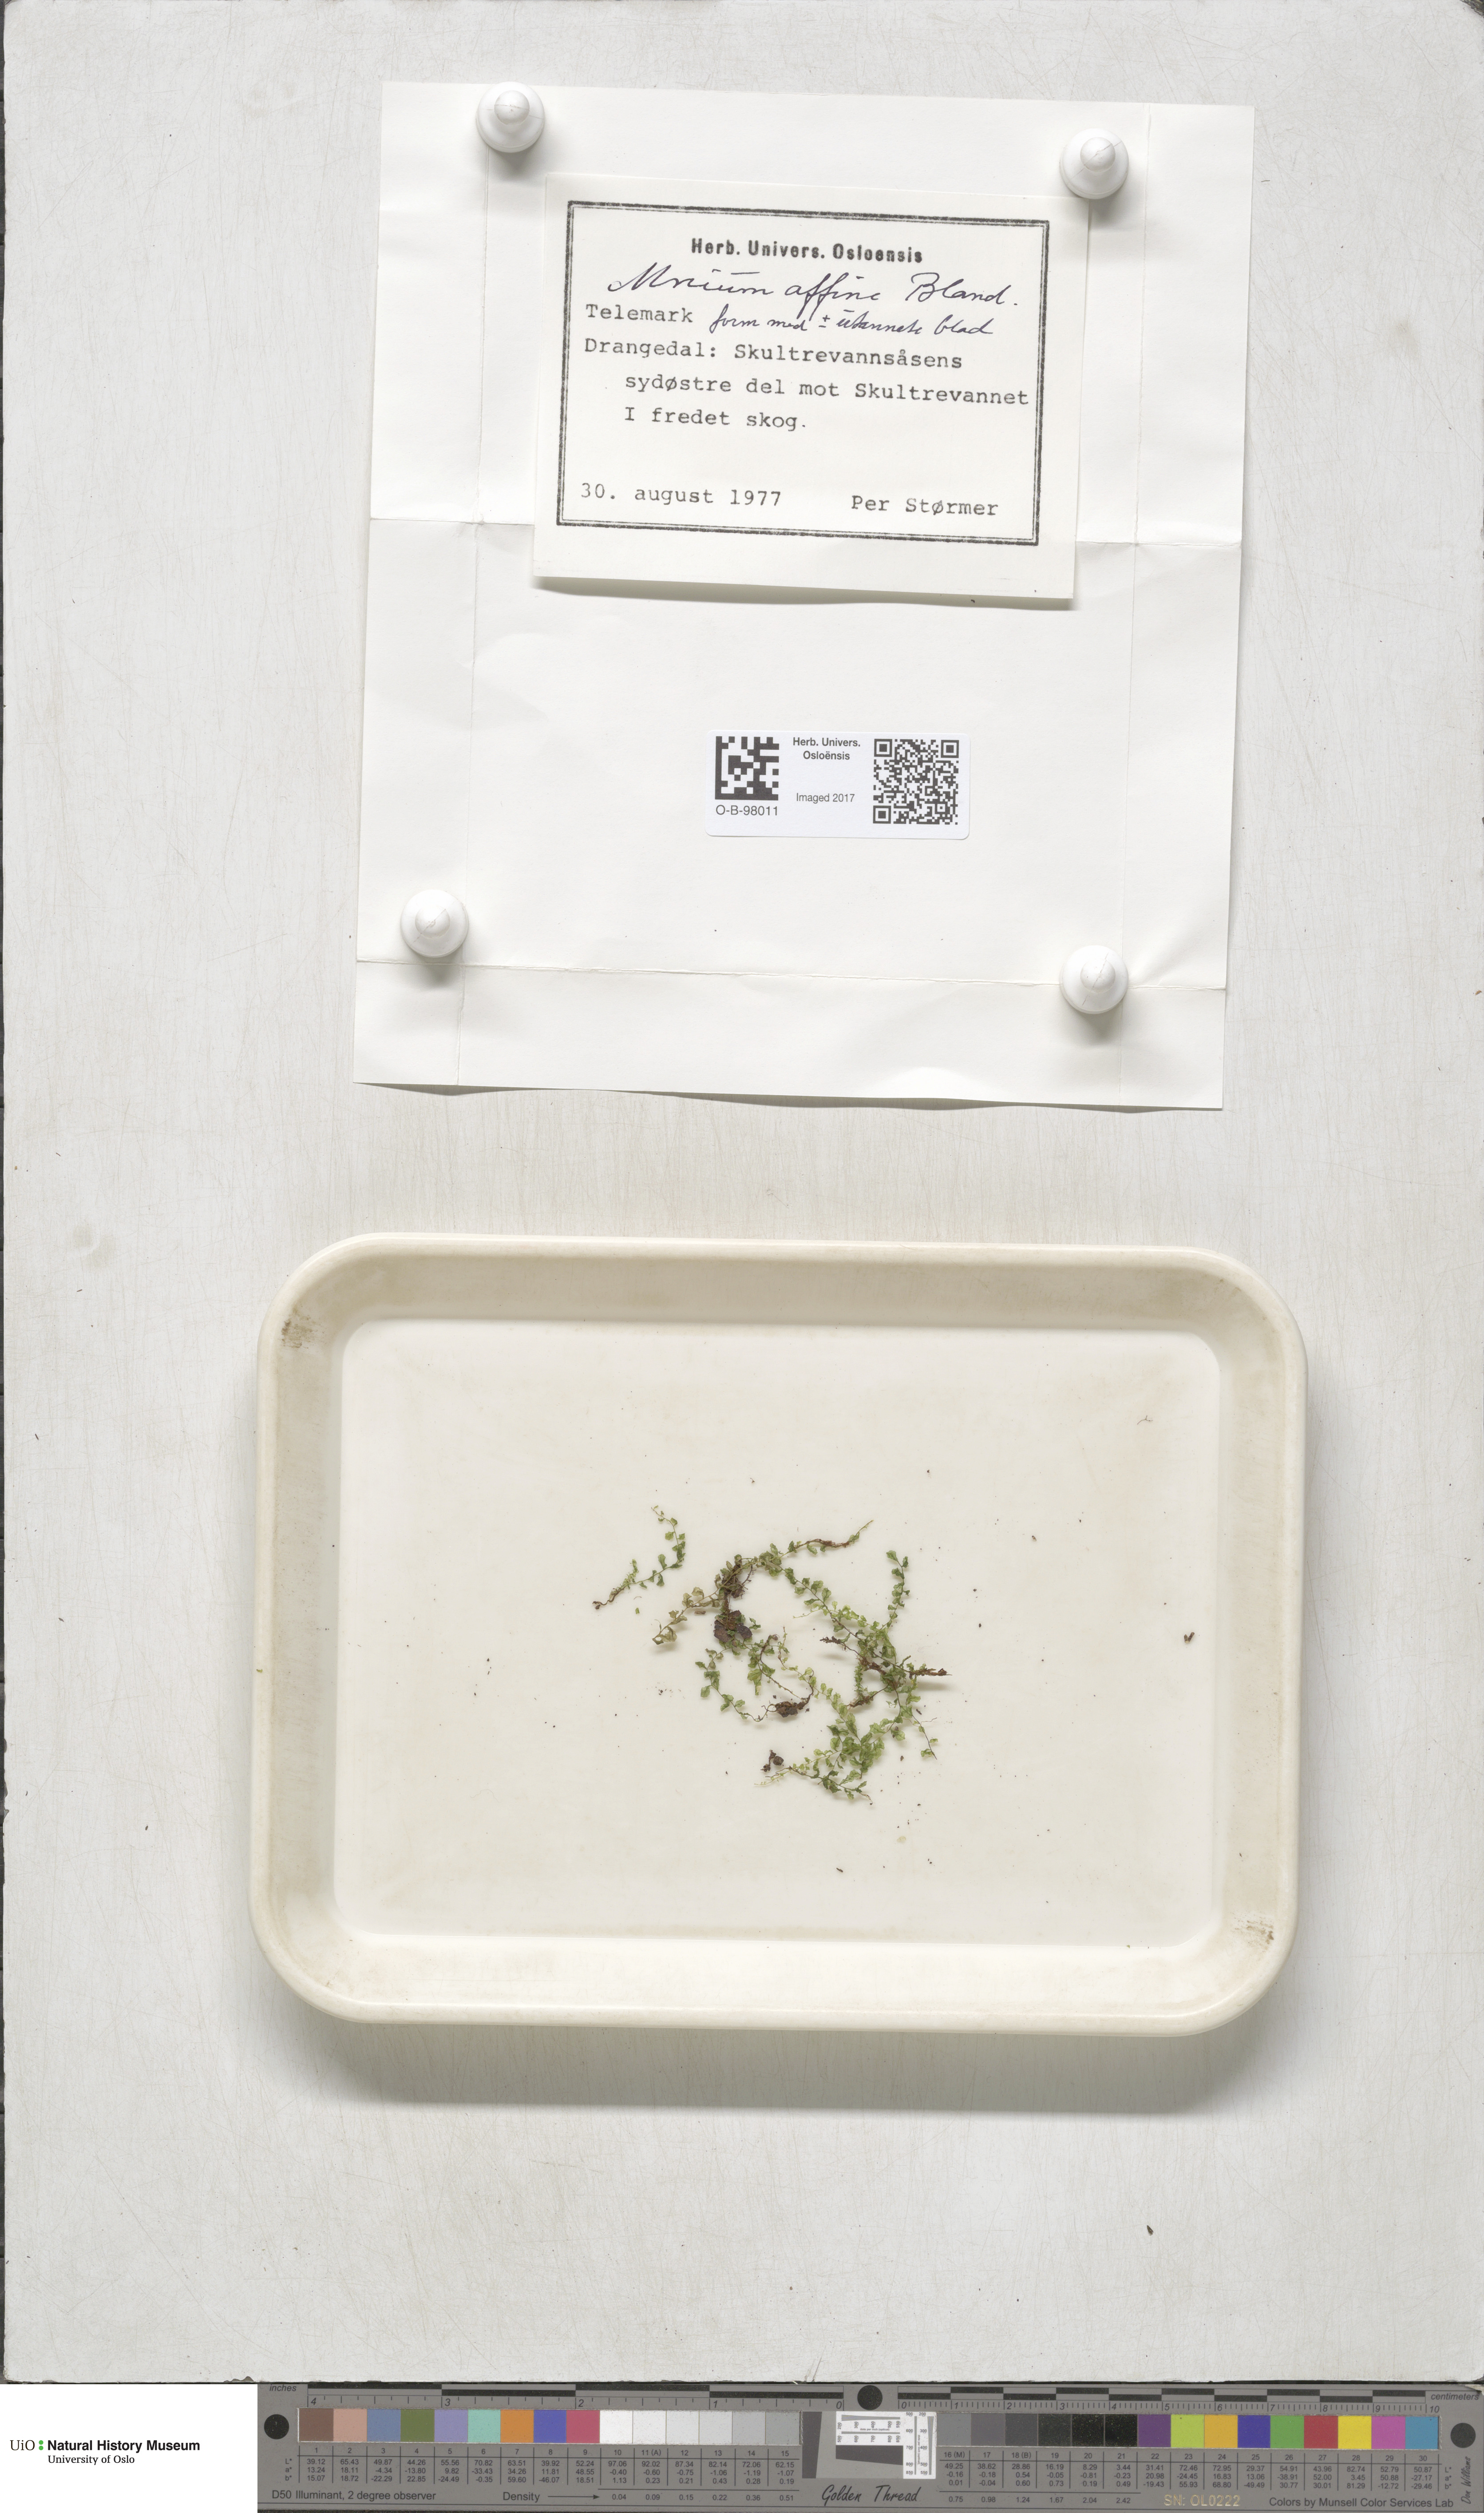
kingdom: Plantae
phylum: Bryophyta
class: Bryopsida
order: Bryales
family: Mniaceae
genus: Plagiomnium
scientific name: Plagiomnium affine
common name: Many-fruited thyme-moss
